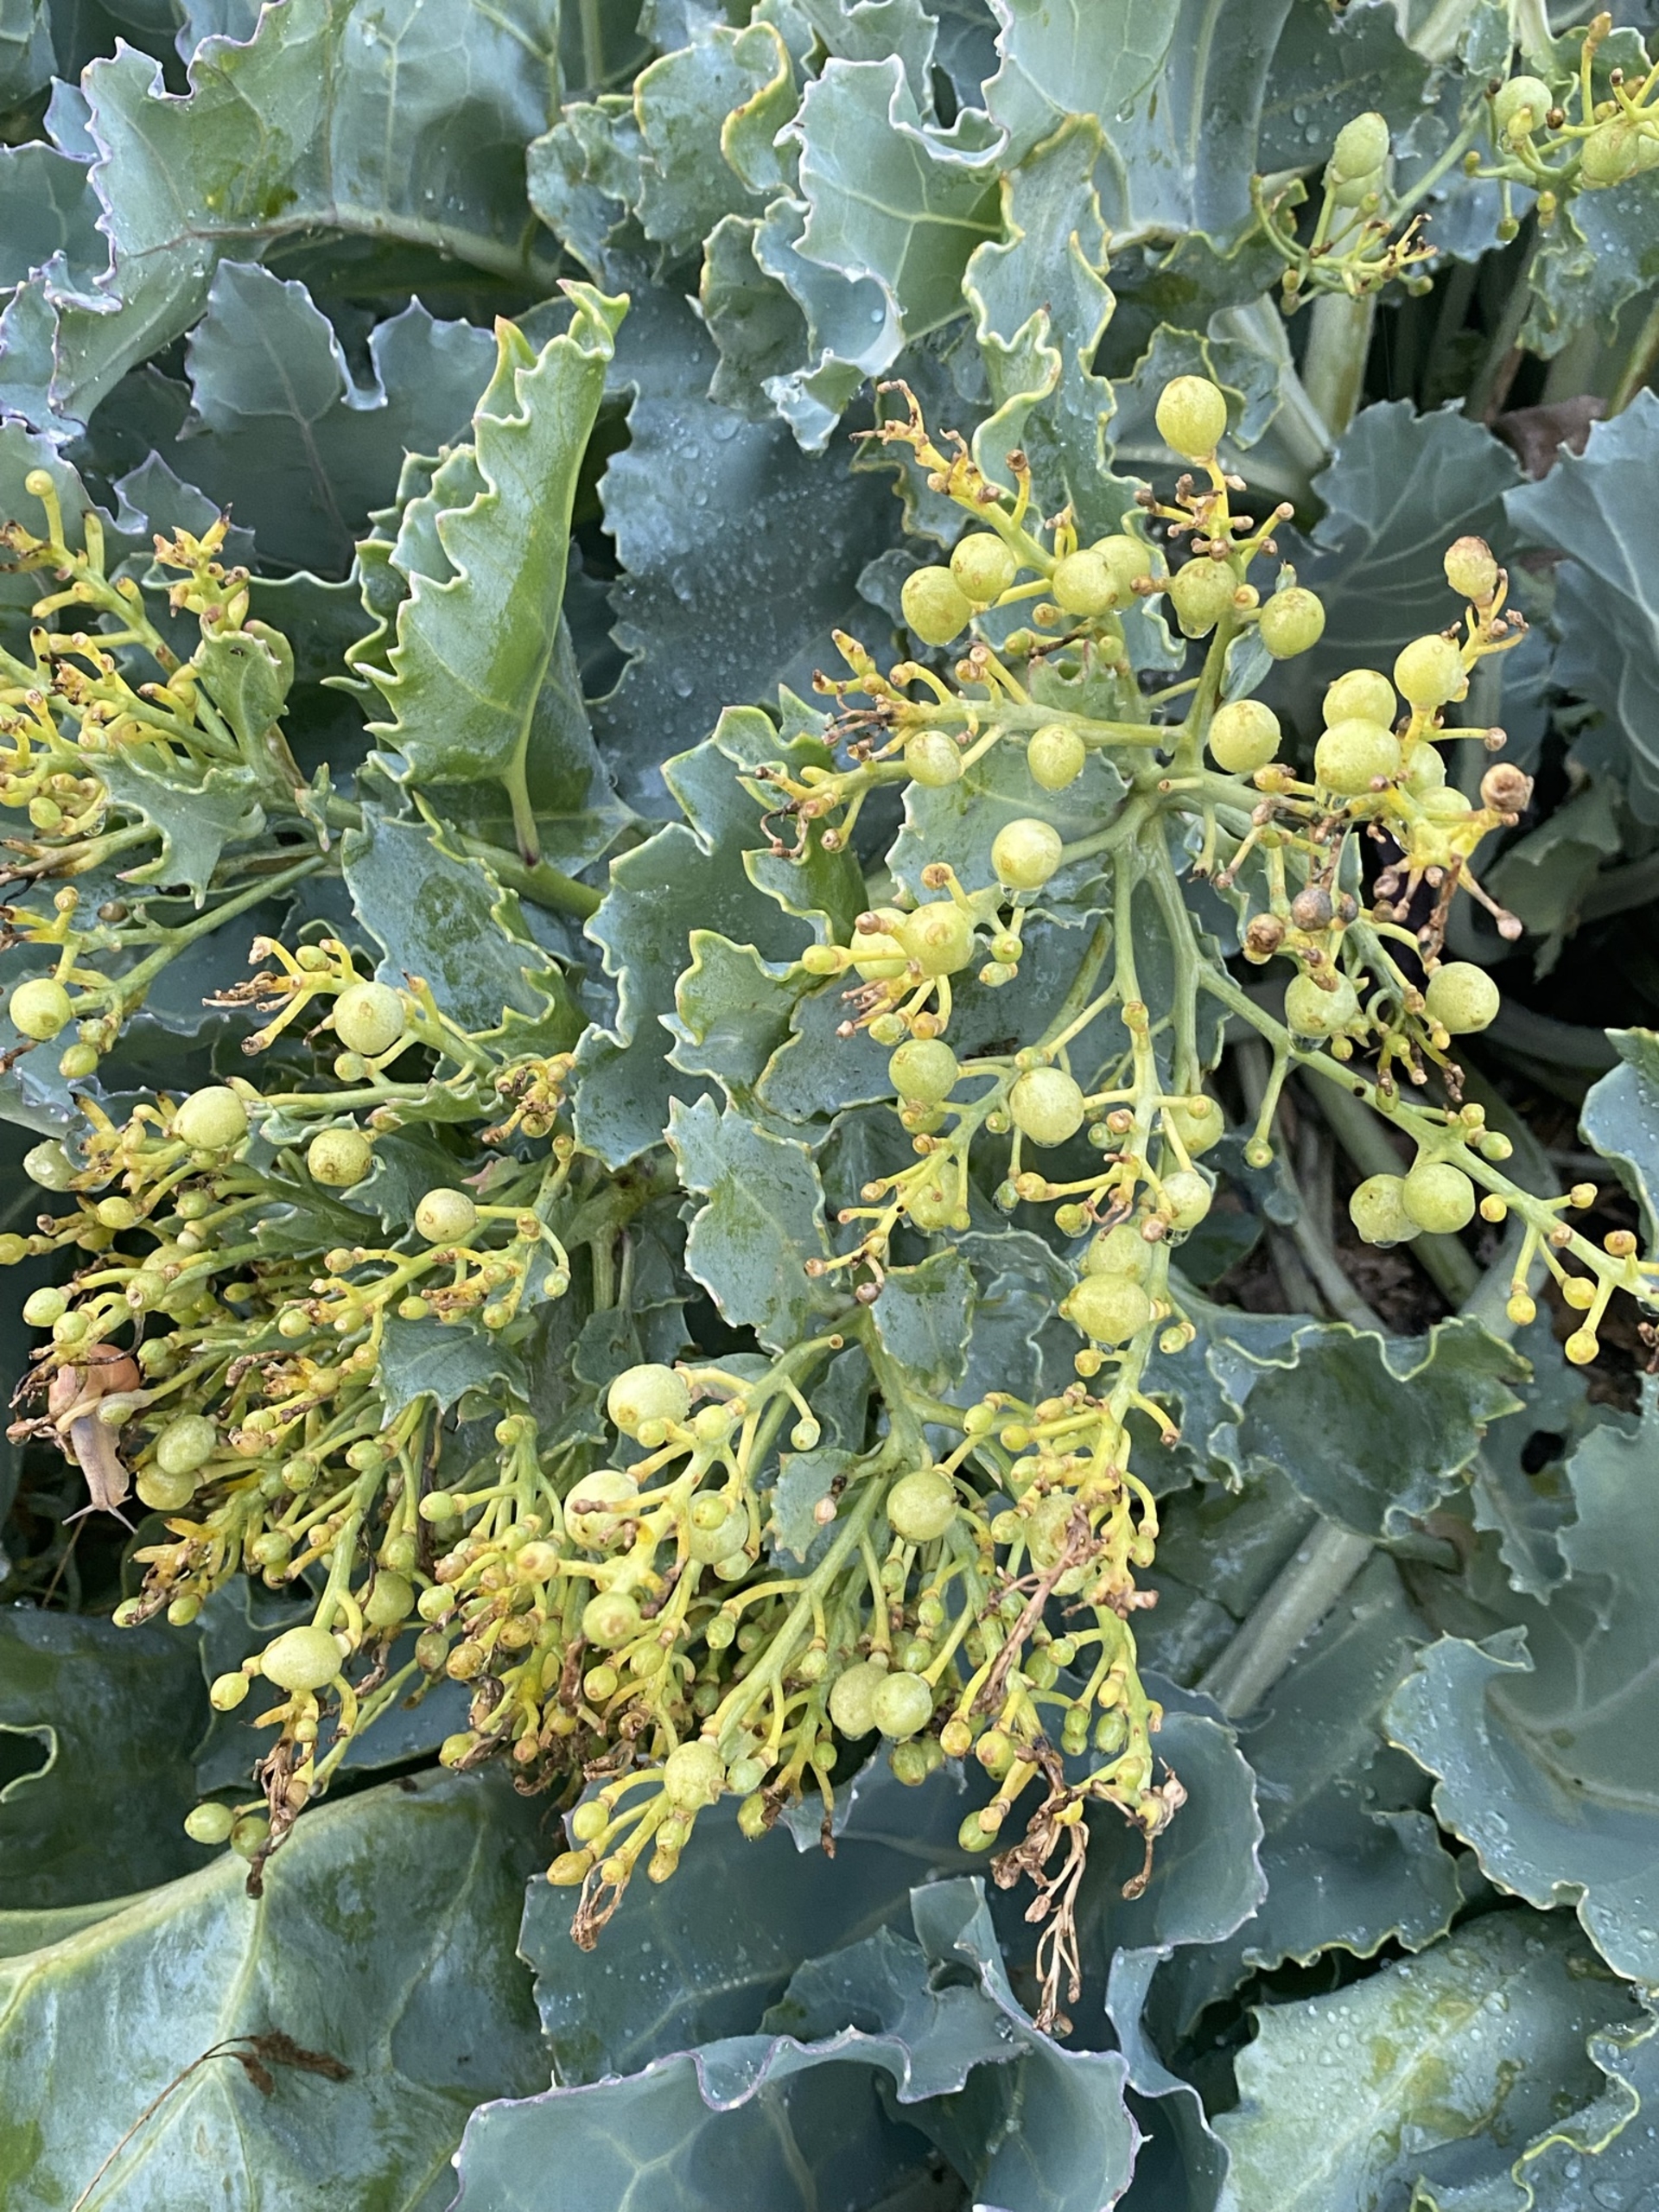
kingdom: Plantae
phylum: Tracheophyta
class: Magnoliopsida
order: Brassicales
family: Brassicaceae
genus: Crambe
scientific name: Crambe maritima
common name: Strandkål
